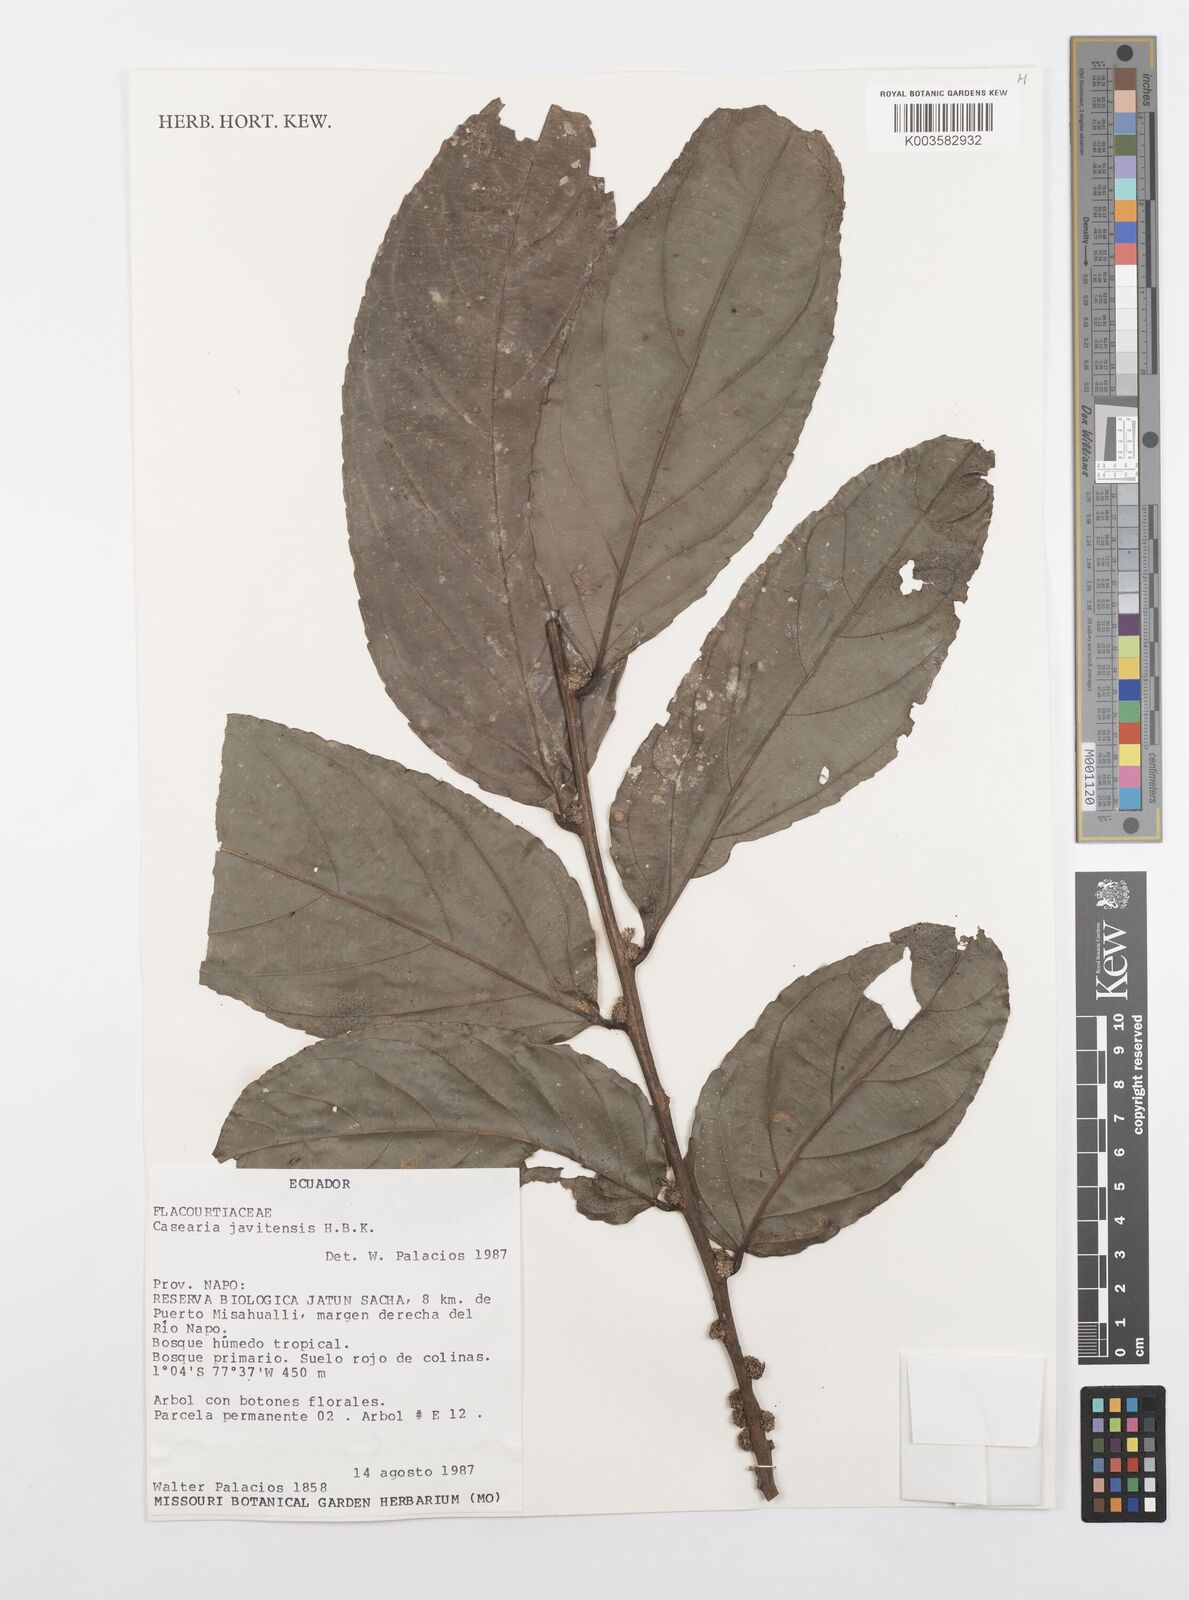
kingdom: Plantae
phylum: Tracheophyta
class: Magnoliopsida
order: Malpighiales
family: Salicaceae
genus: Piparea
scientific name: Piparea multiflora
